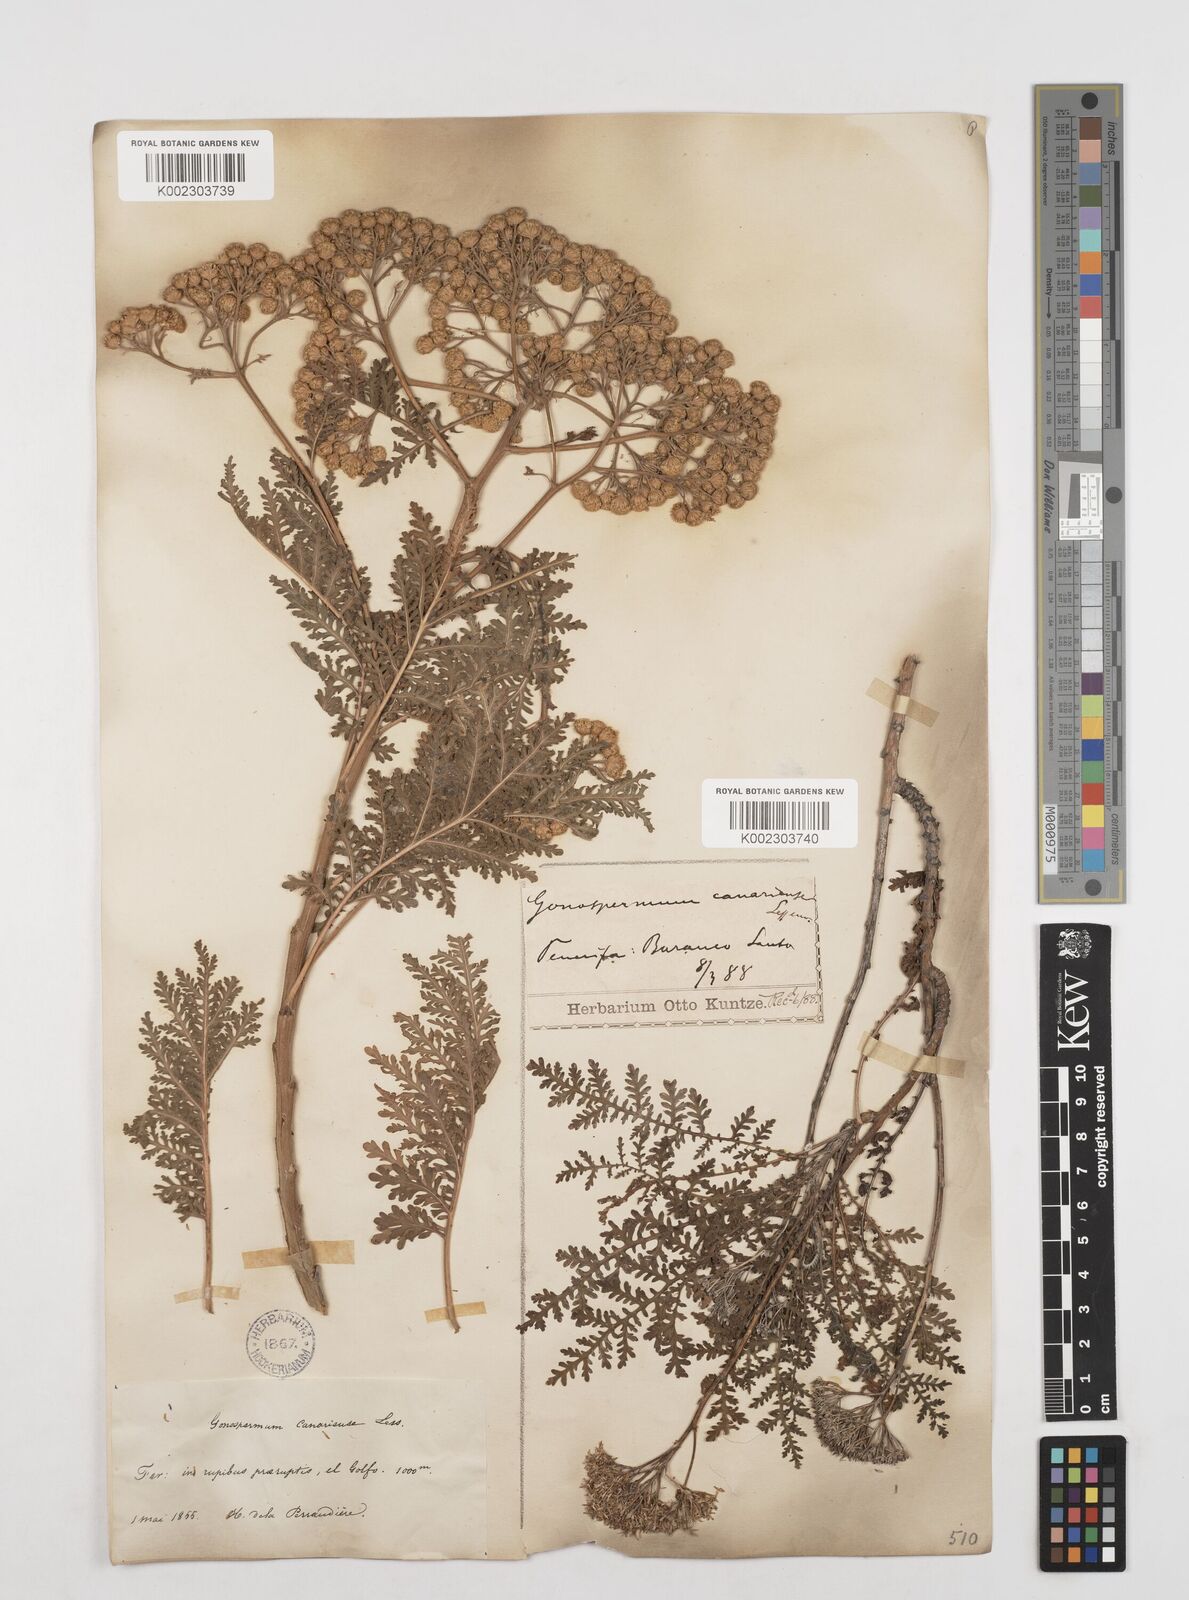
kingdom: Plantae
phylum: Tracheophyta
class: Magnoliopsida
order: Asterales
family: Asteraceae
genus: Gonospermum
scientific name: Gonospermum fruticosum
